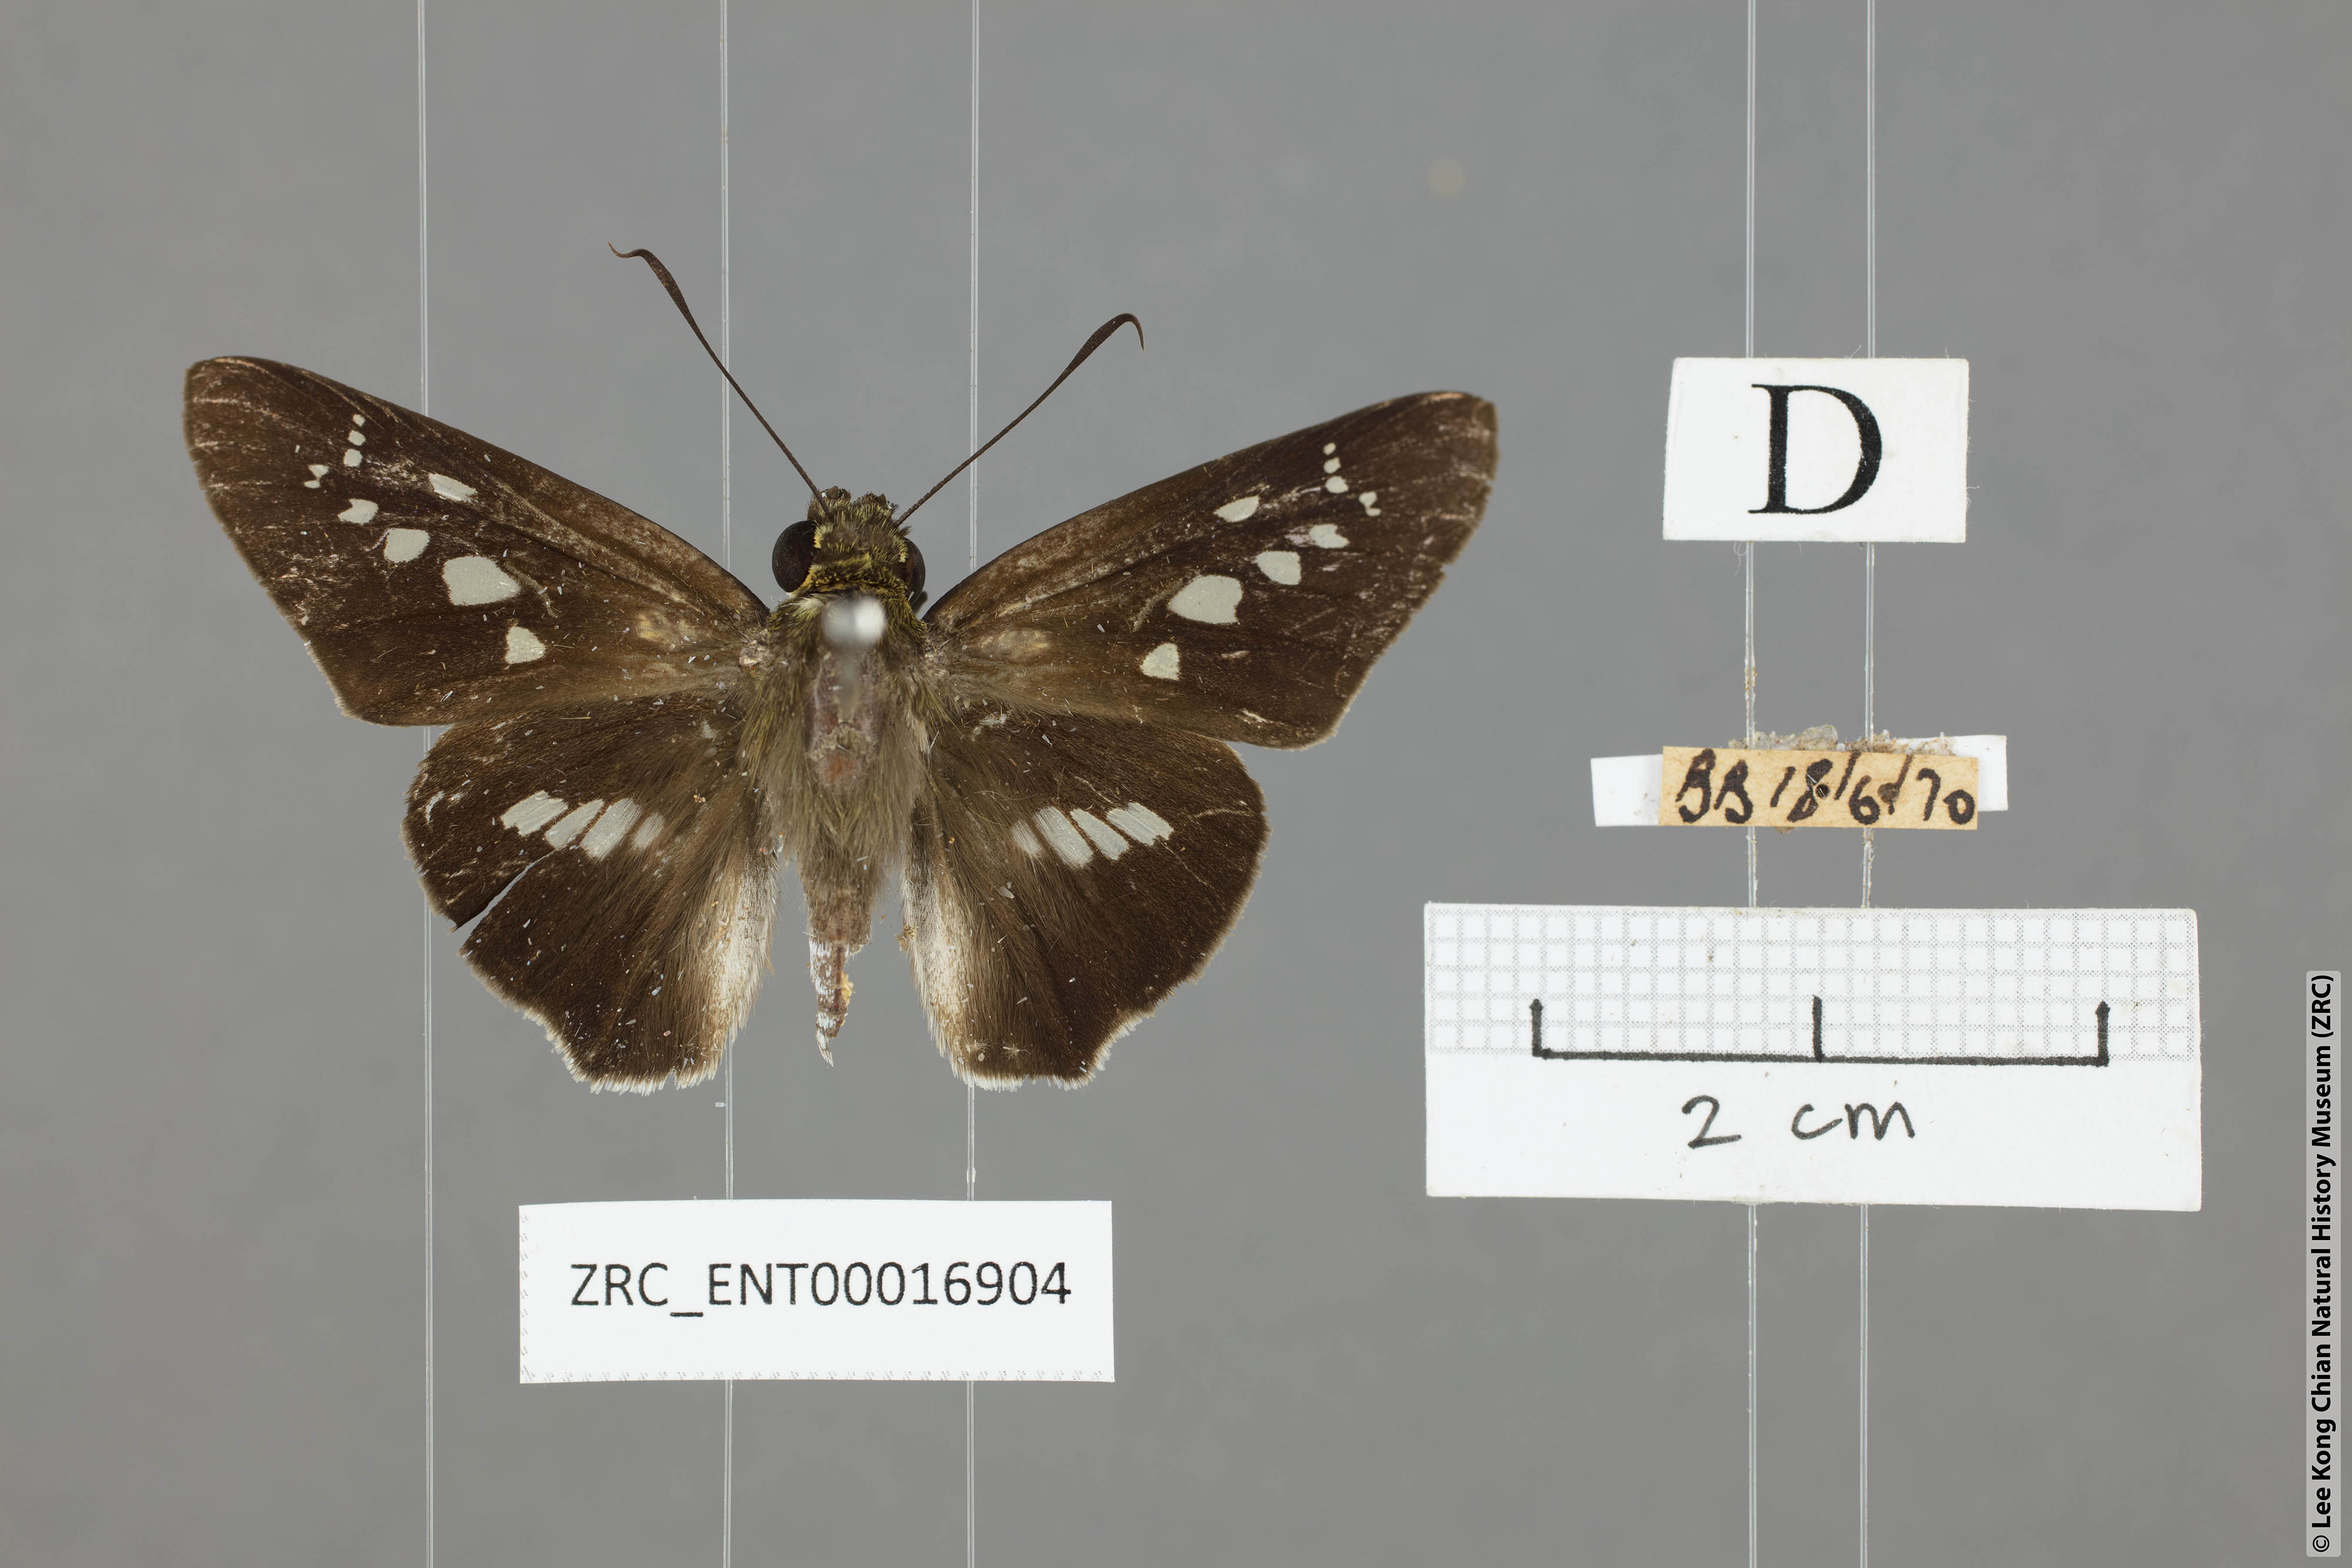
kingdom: Animalia
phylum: Arthropoda
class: Insecta
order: Lepidoptera
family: Hesperiidae
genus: Eetion
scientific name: Eetion elia
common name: White spotted palmer
